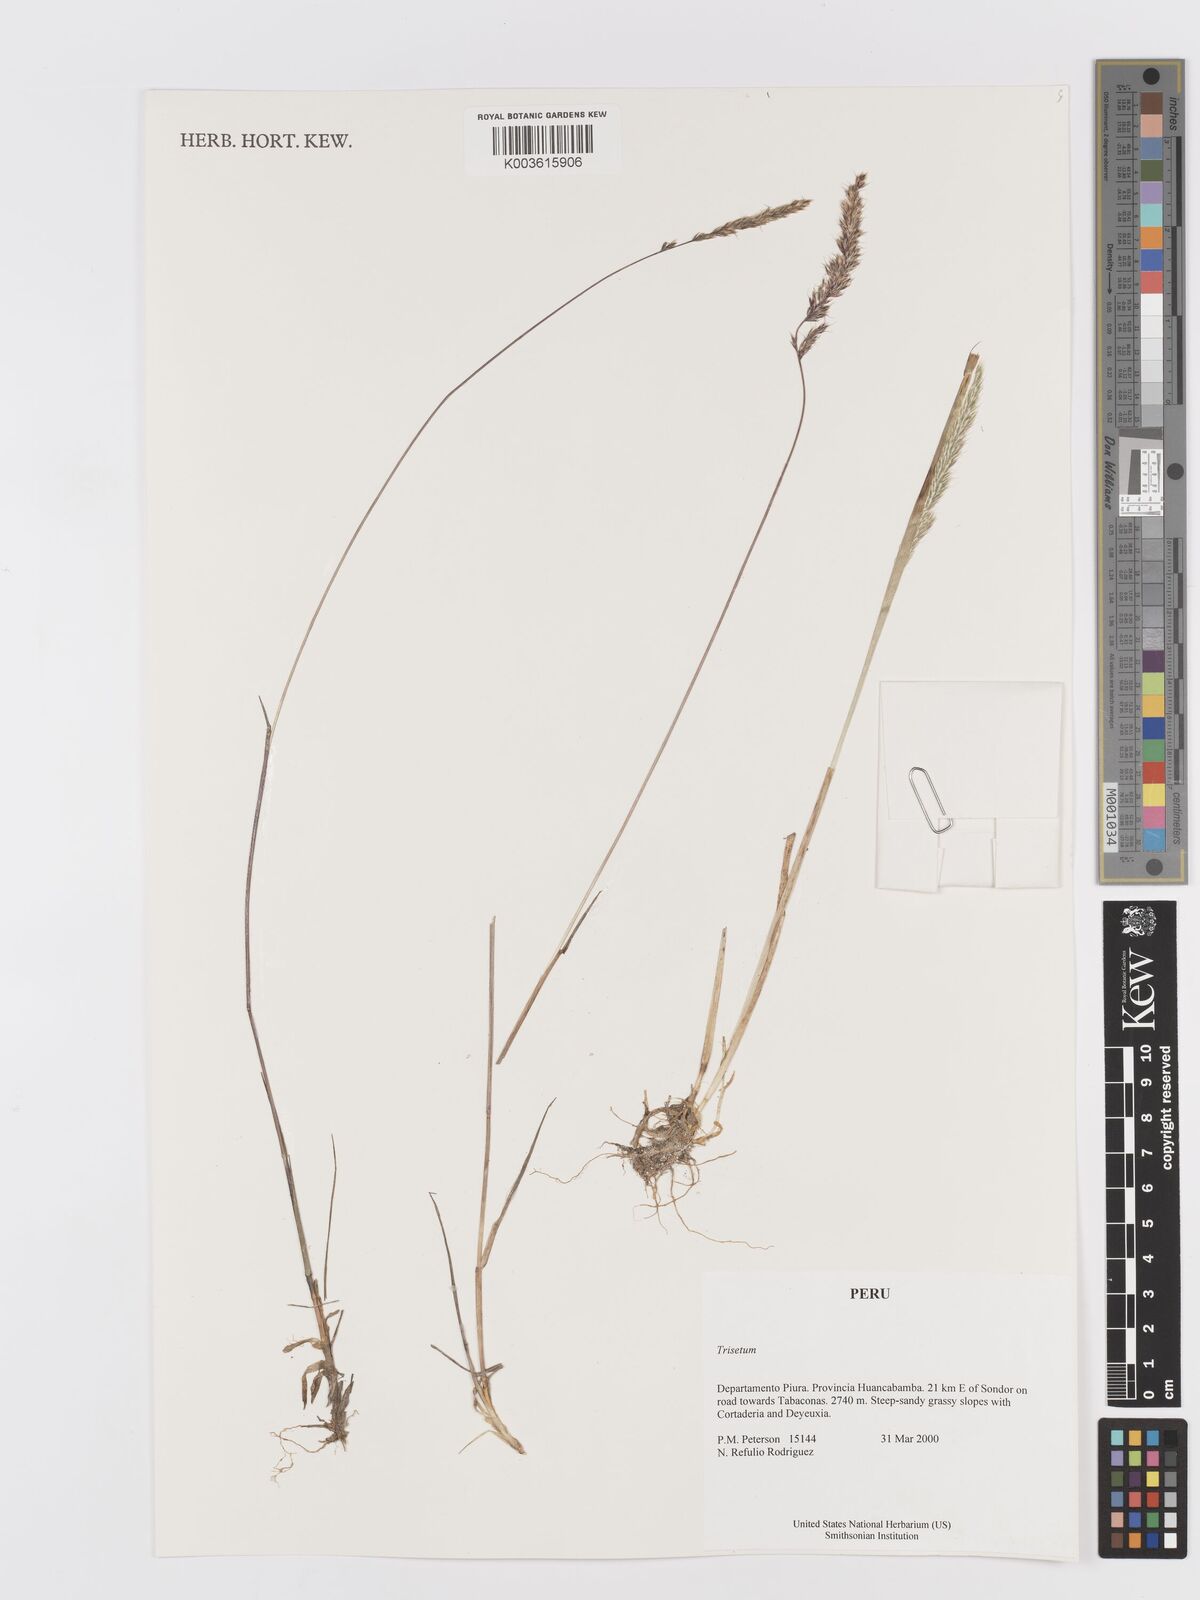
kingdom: Plantae
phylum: Tracheophyta
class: Liliopsida
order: Poales
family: Poaceae
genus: Trisetum
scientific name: Trisetum
